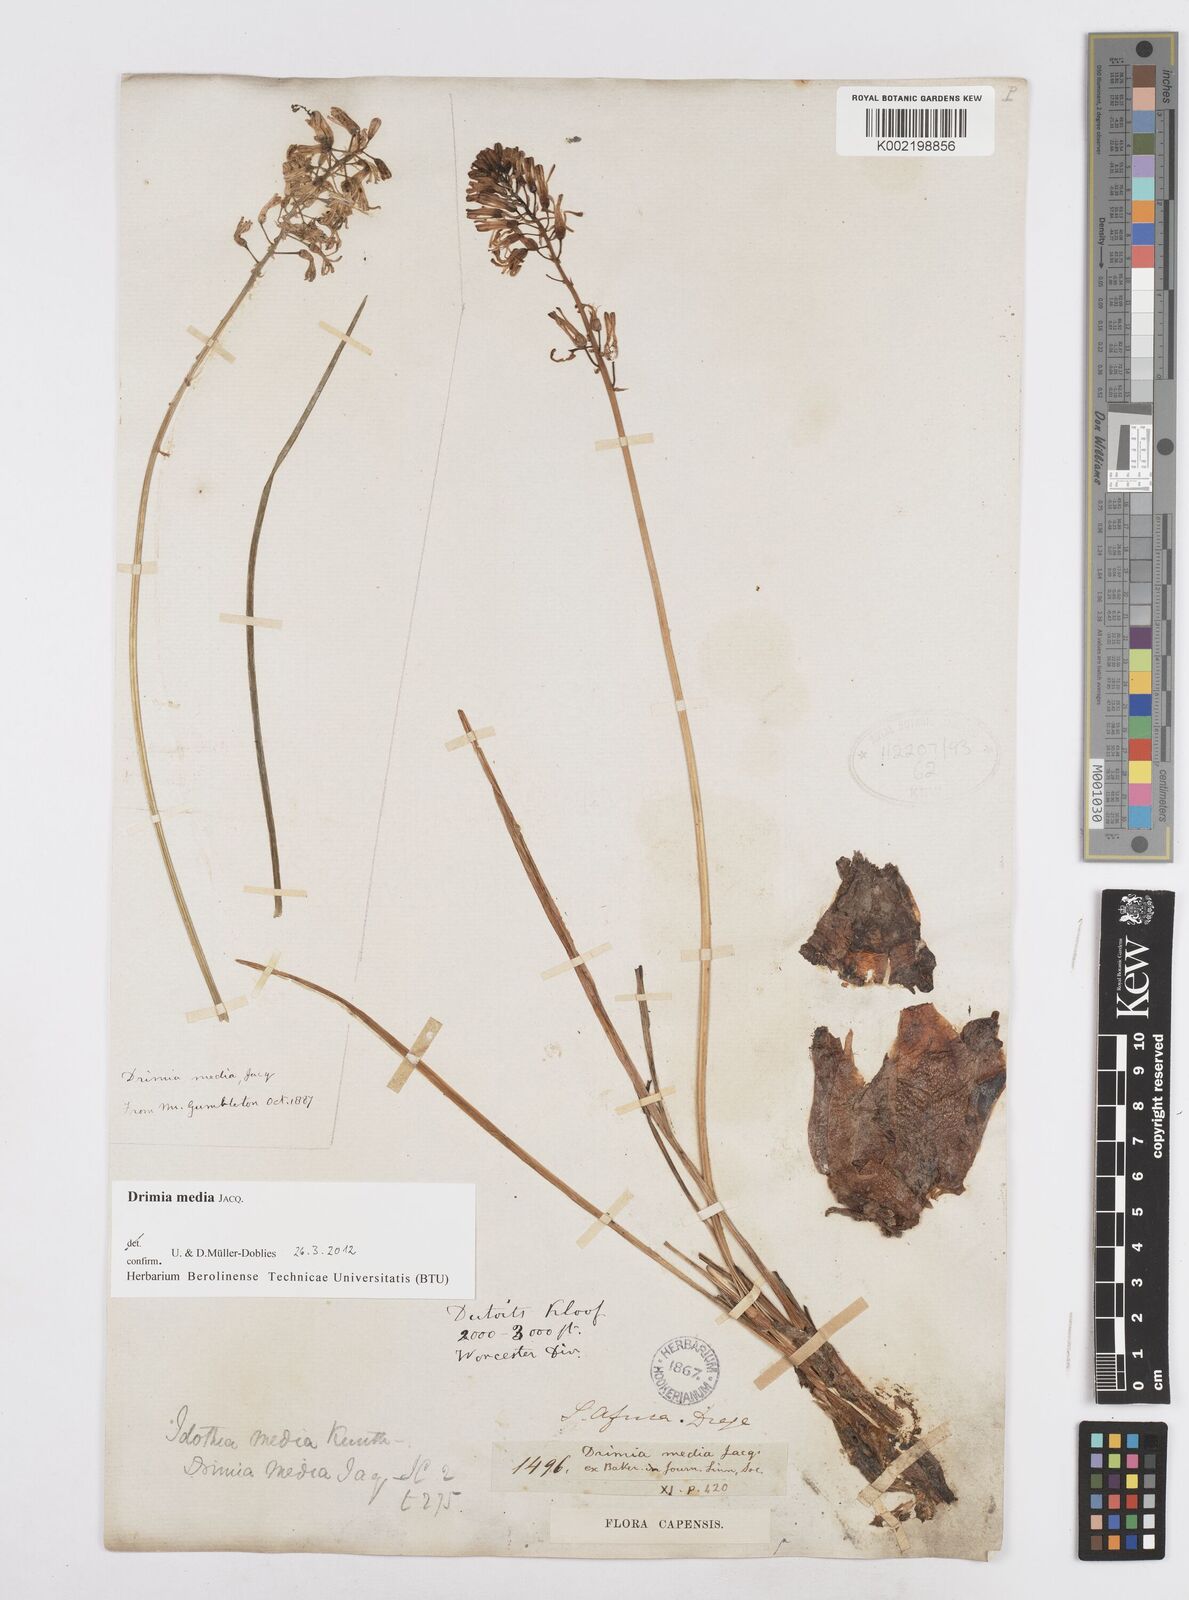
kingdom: Plantae
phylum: Tracheophyta
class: Liliopsida
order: Asparagales
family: Asparagaceae
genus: Drimia
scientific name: Drimia media
